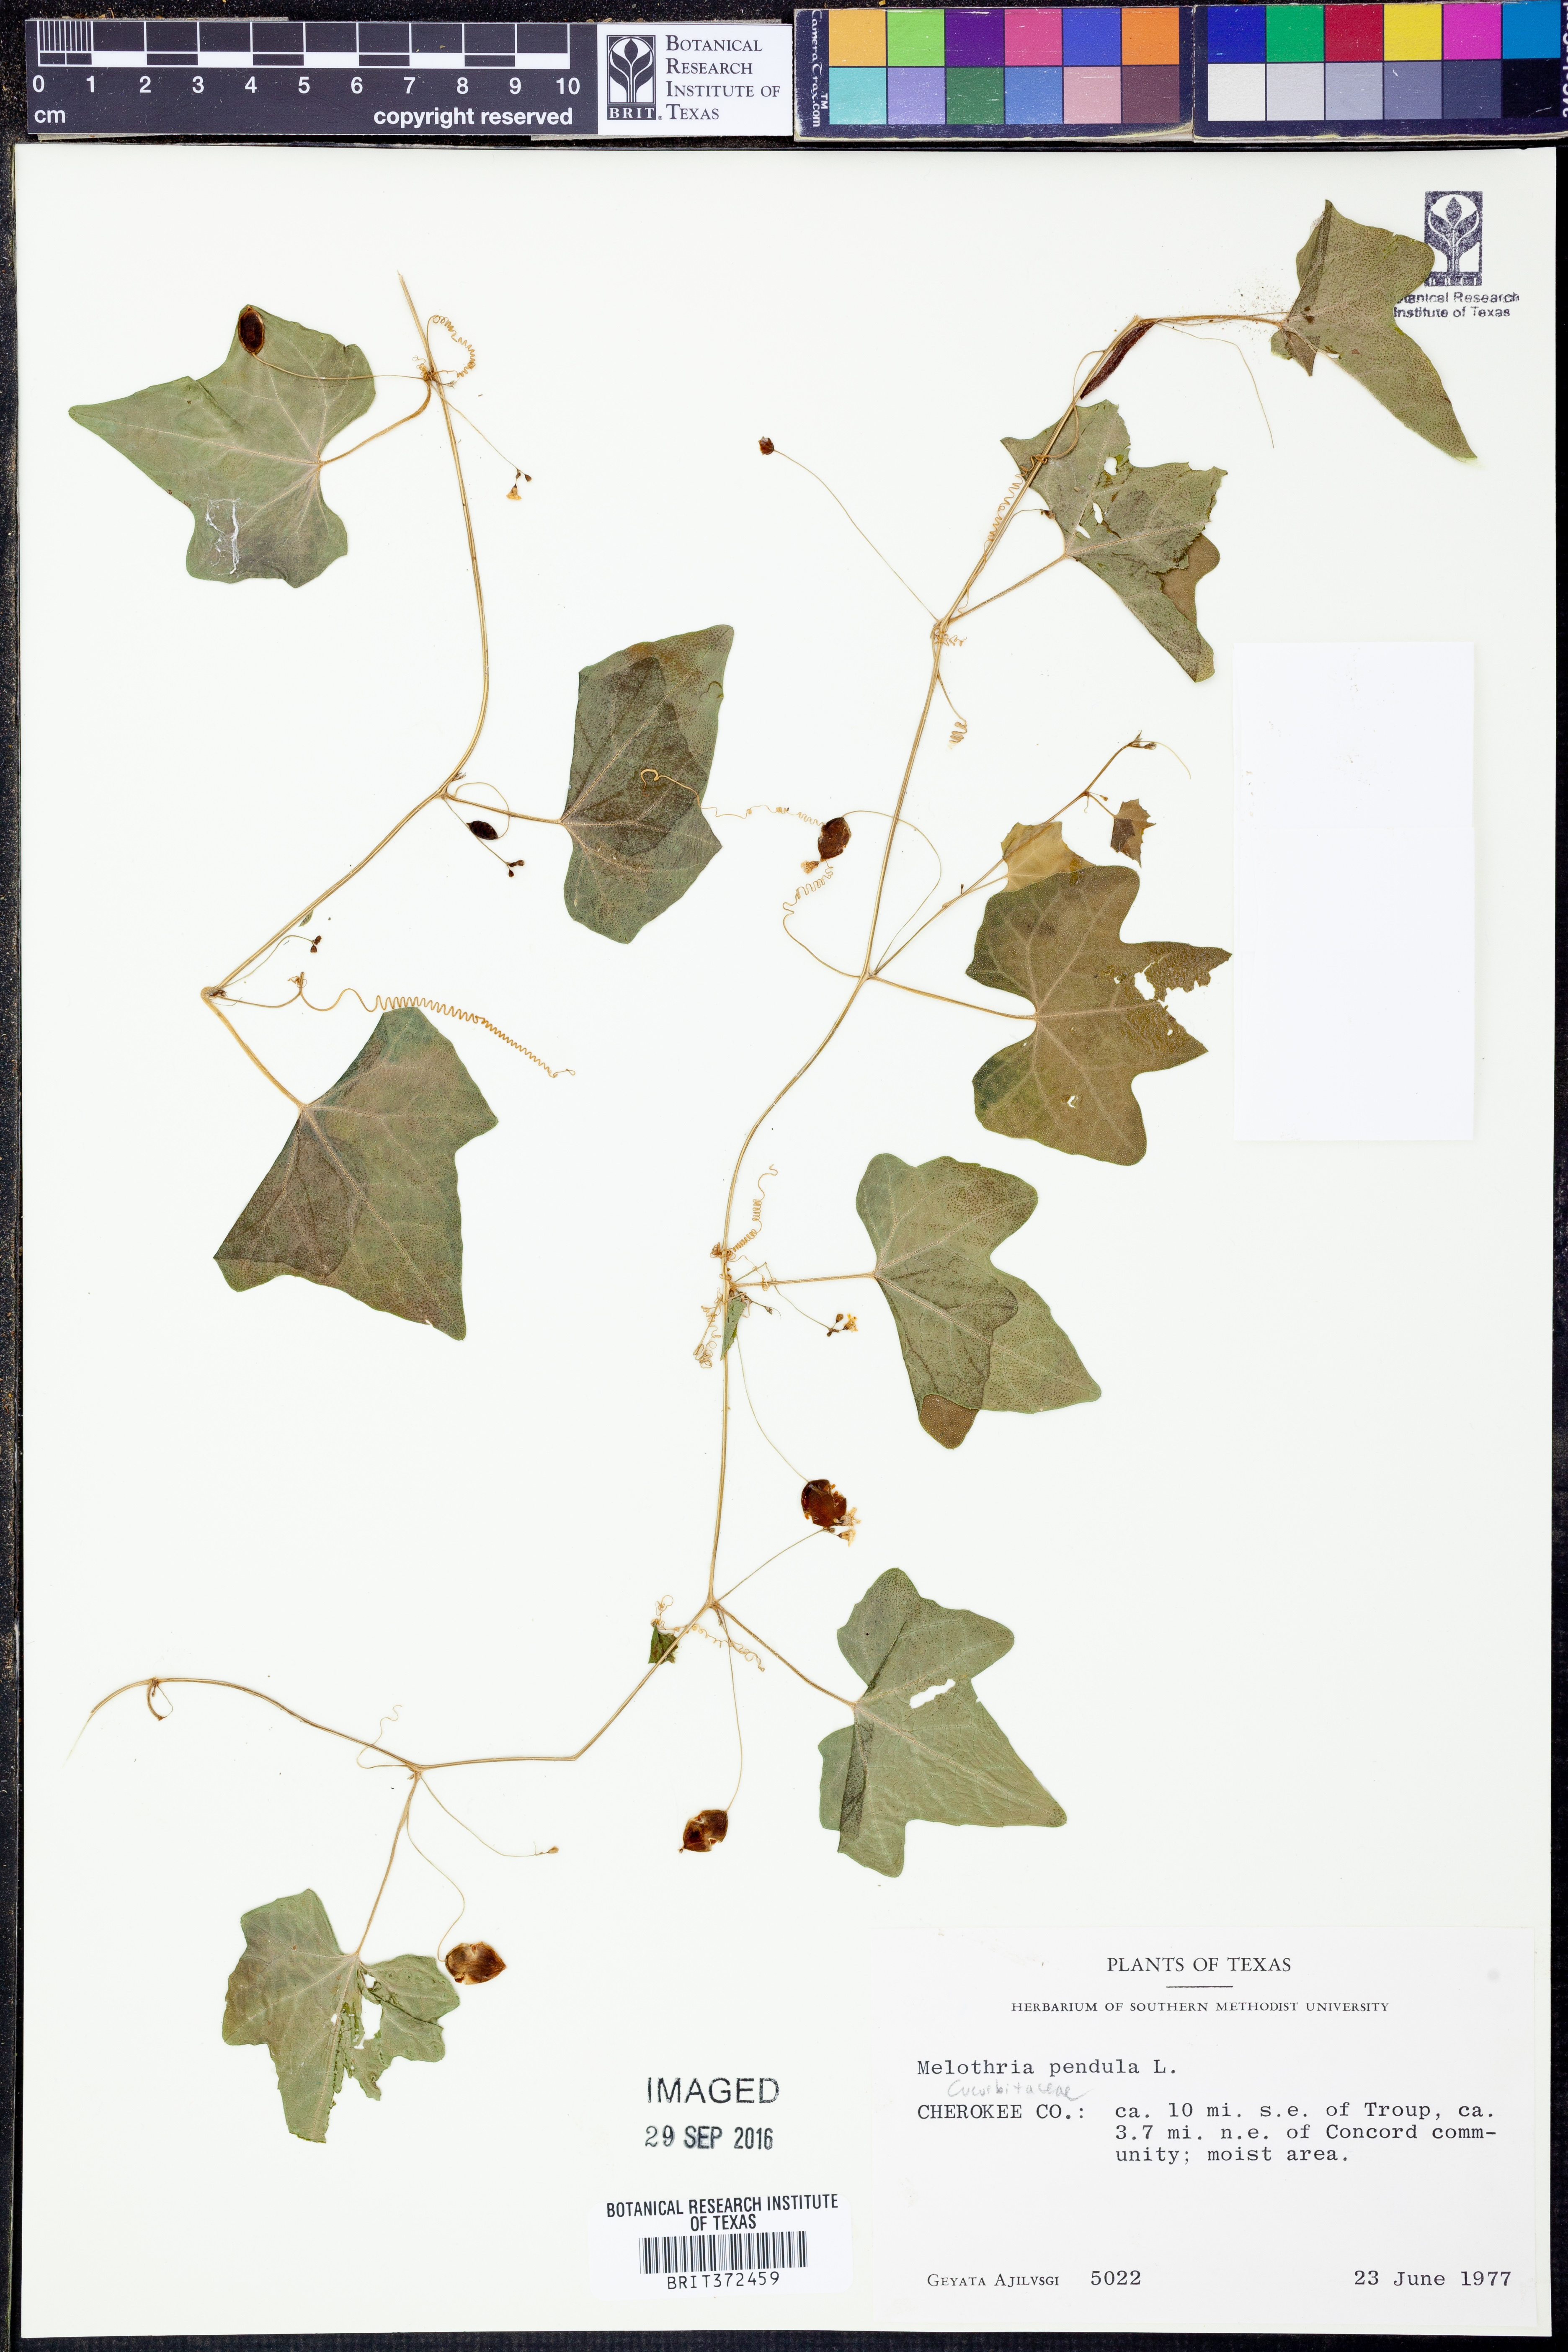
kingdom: Plantae
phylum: Tracheophyta
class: Magnoliopsida
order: Cucurbitales
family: Cucurbitaceae
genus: Melothria
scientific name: Melothria pendula
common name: Creeping-cucumber
